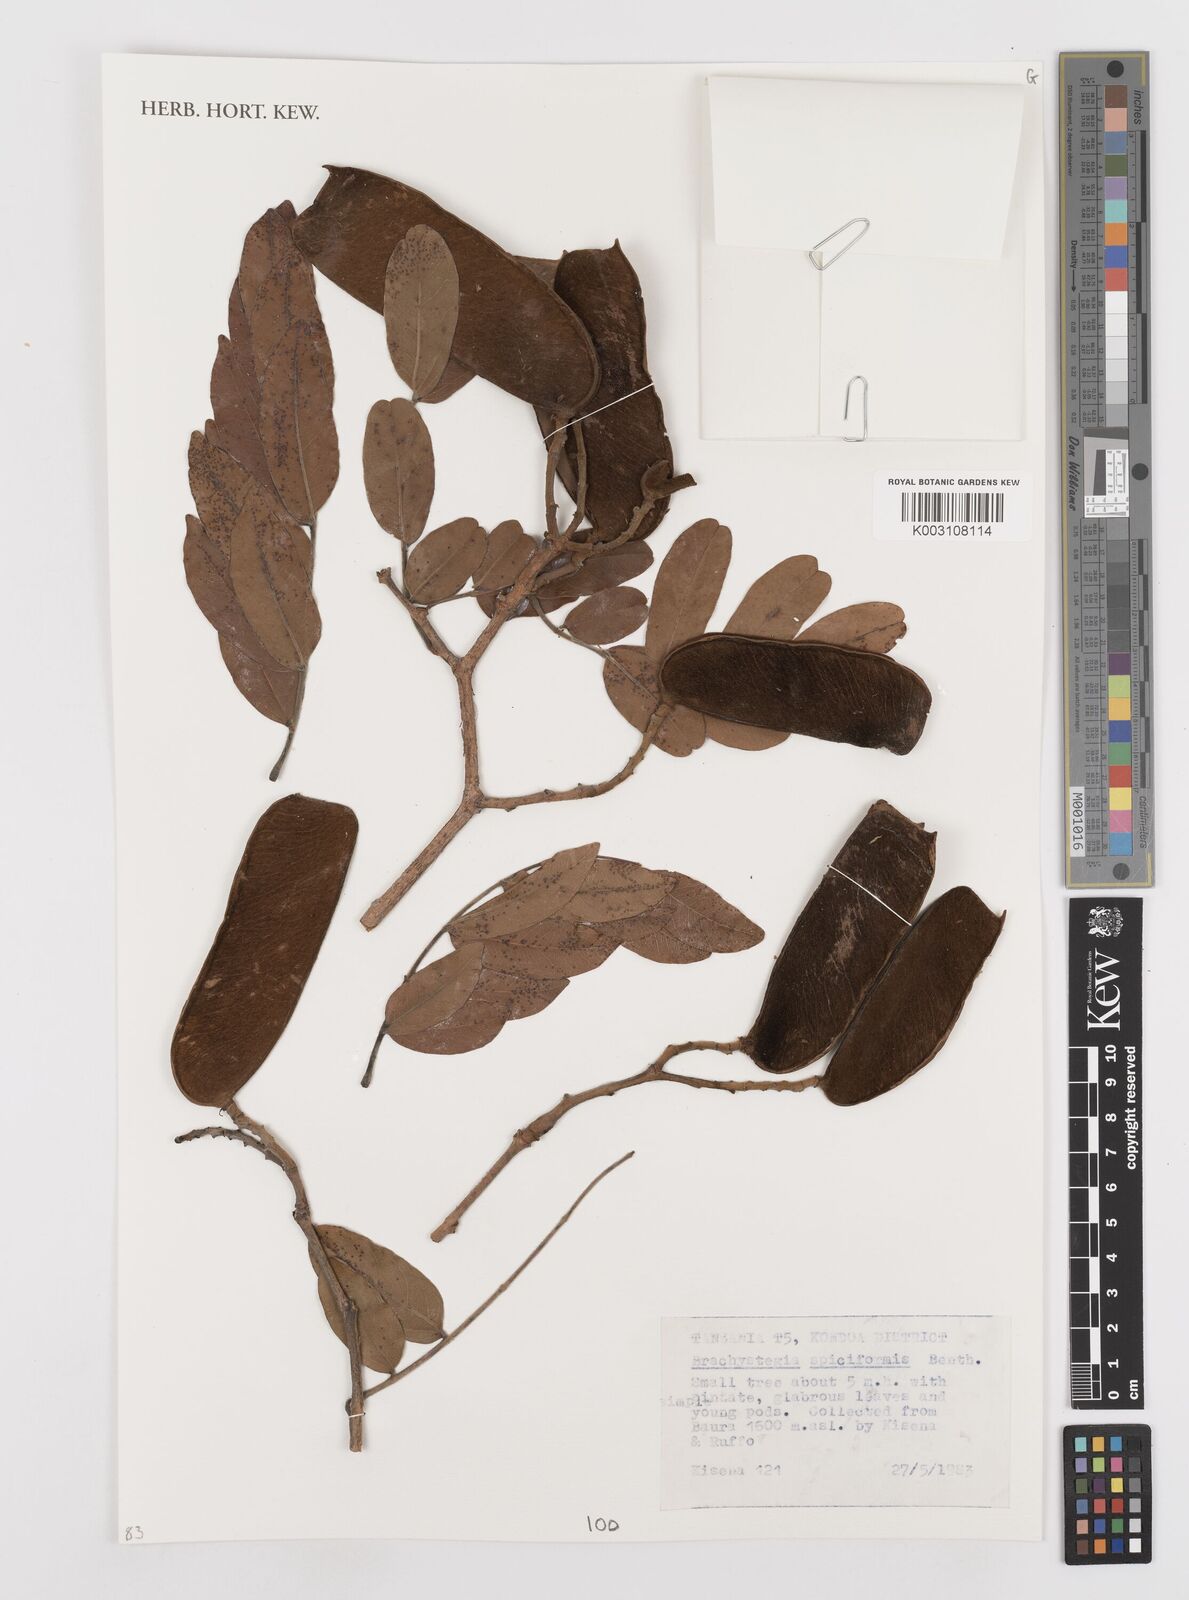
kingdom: Plantae
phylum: Tracheophyta
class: Magnoliopsida
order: Fabales
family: Fabaceae
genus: Brachystegia
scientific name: Brachystegia spiciformis
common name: Zebrawood
